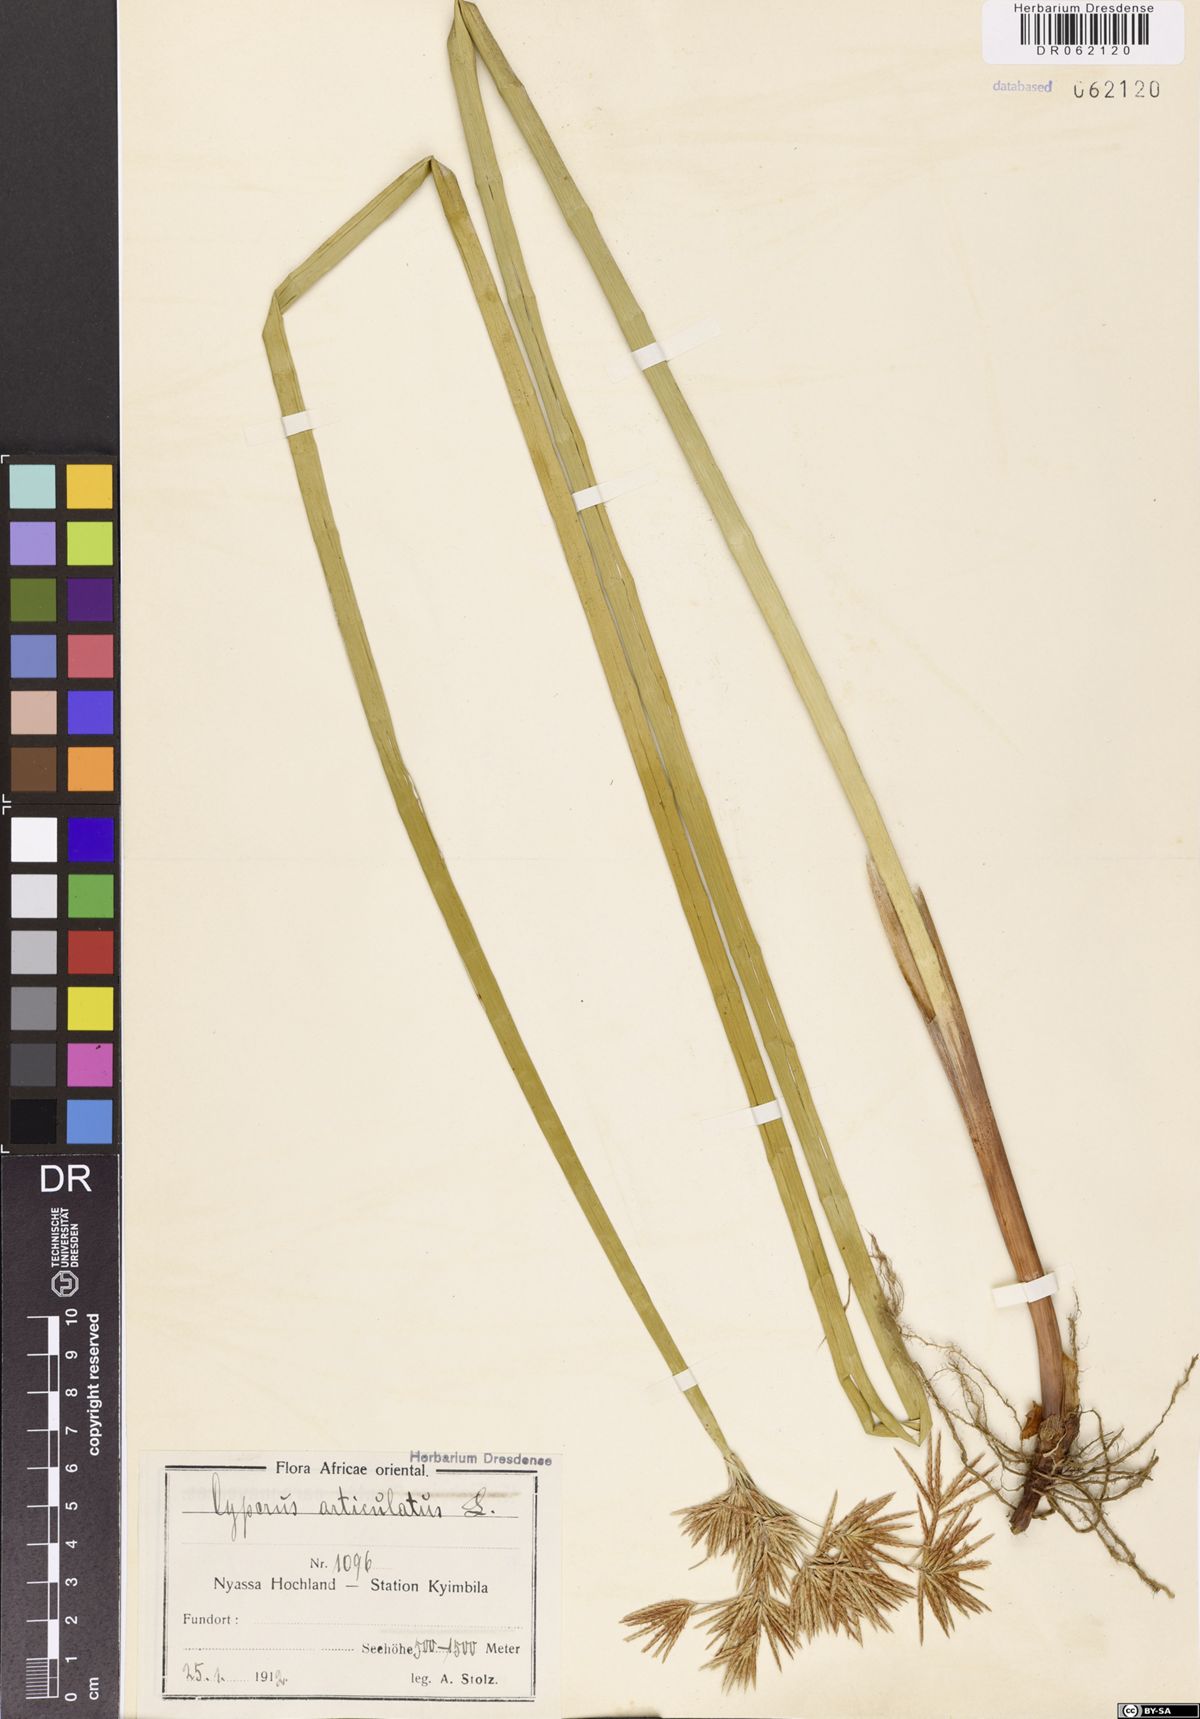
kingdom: Plantae
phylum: Tracheophyta
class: Liliopsida
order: Poales
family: Cyperaceae
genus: Cyperus
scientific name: Cyperus articulatus
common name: Jointed flatsedge
